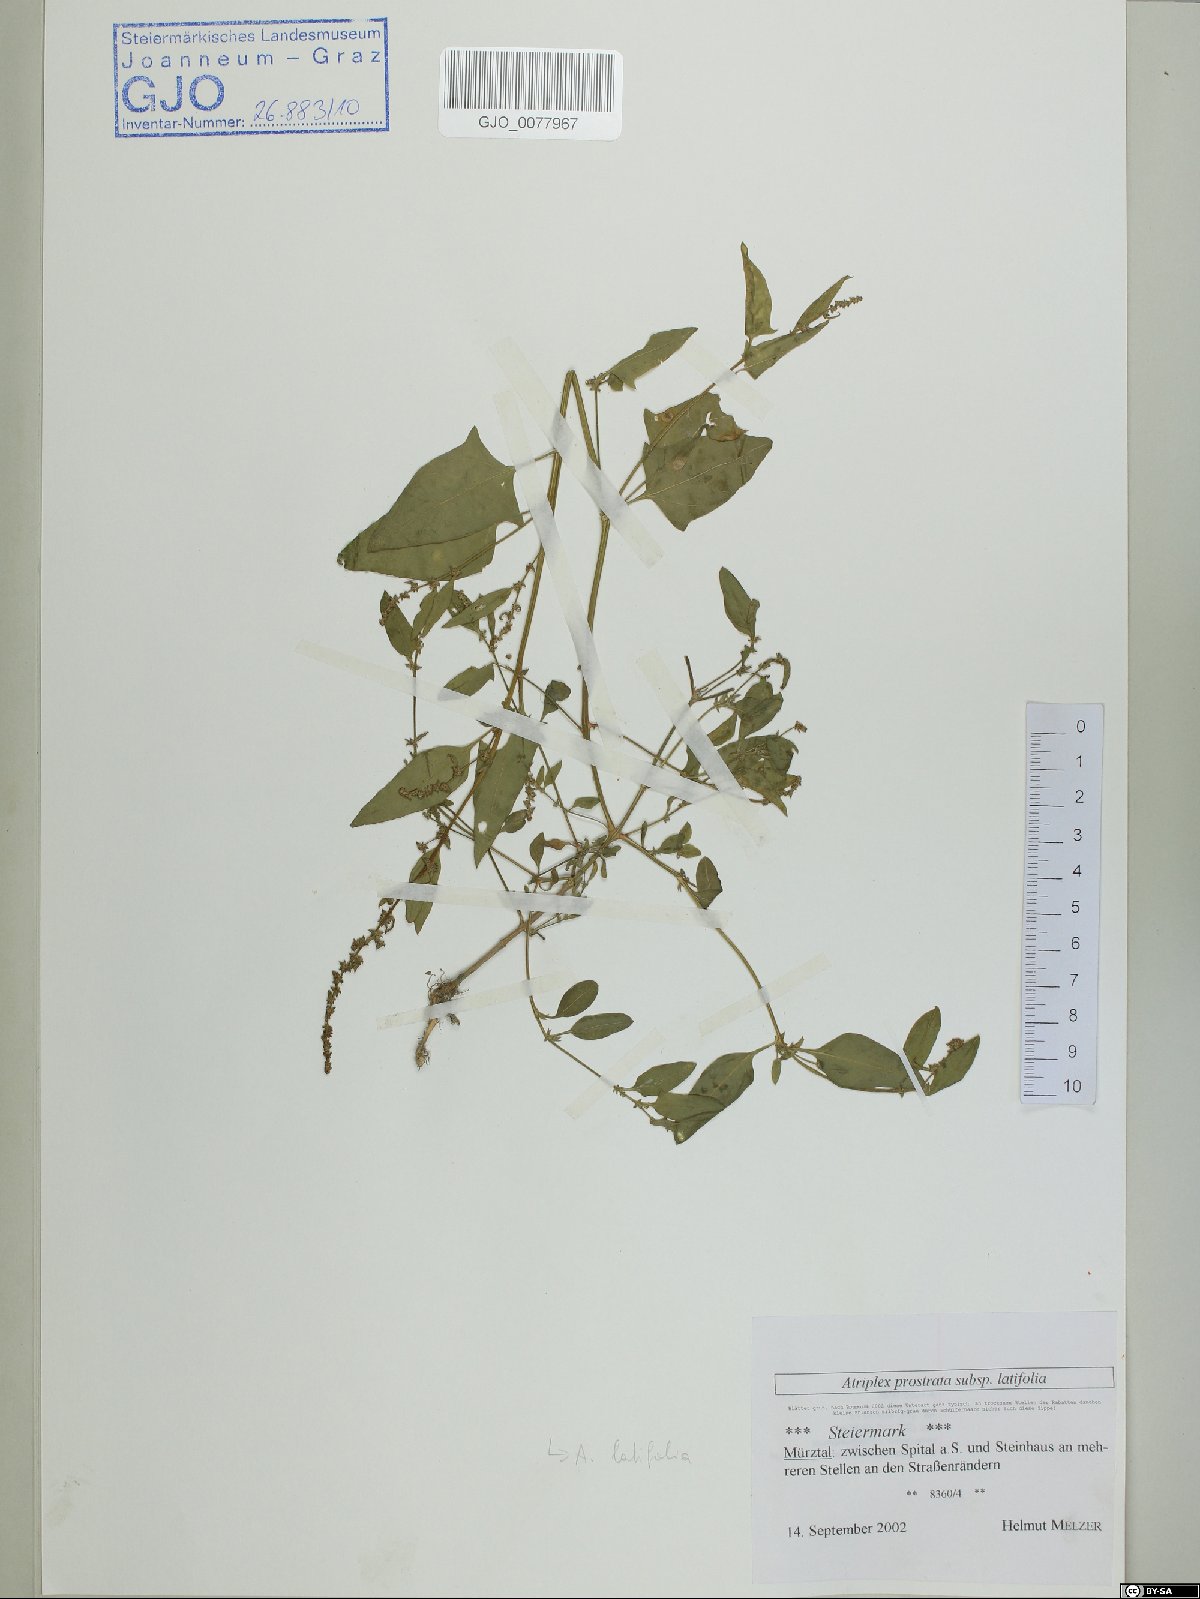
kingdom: Plantae
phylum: Tracheophyta
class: Magnoliopsida
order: Caryophyllales
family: Amaranthaceae
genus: Atriplex
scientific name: Atriplex prostrata
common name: Spear-leaved orache
